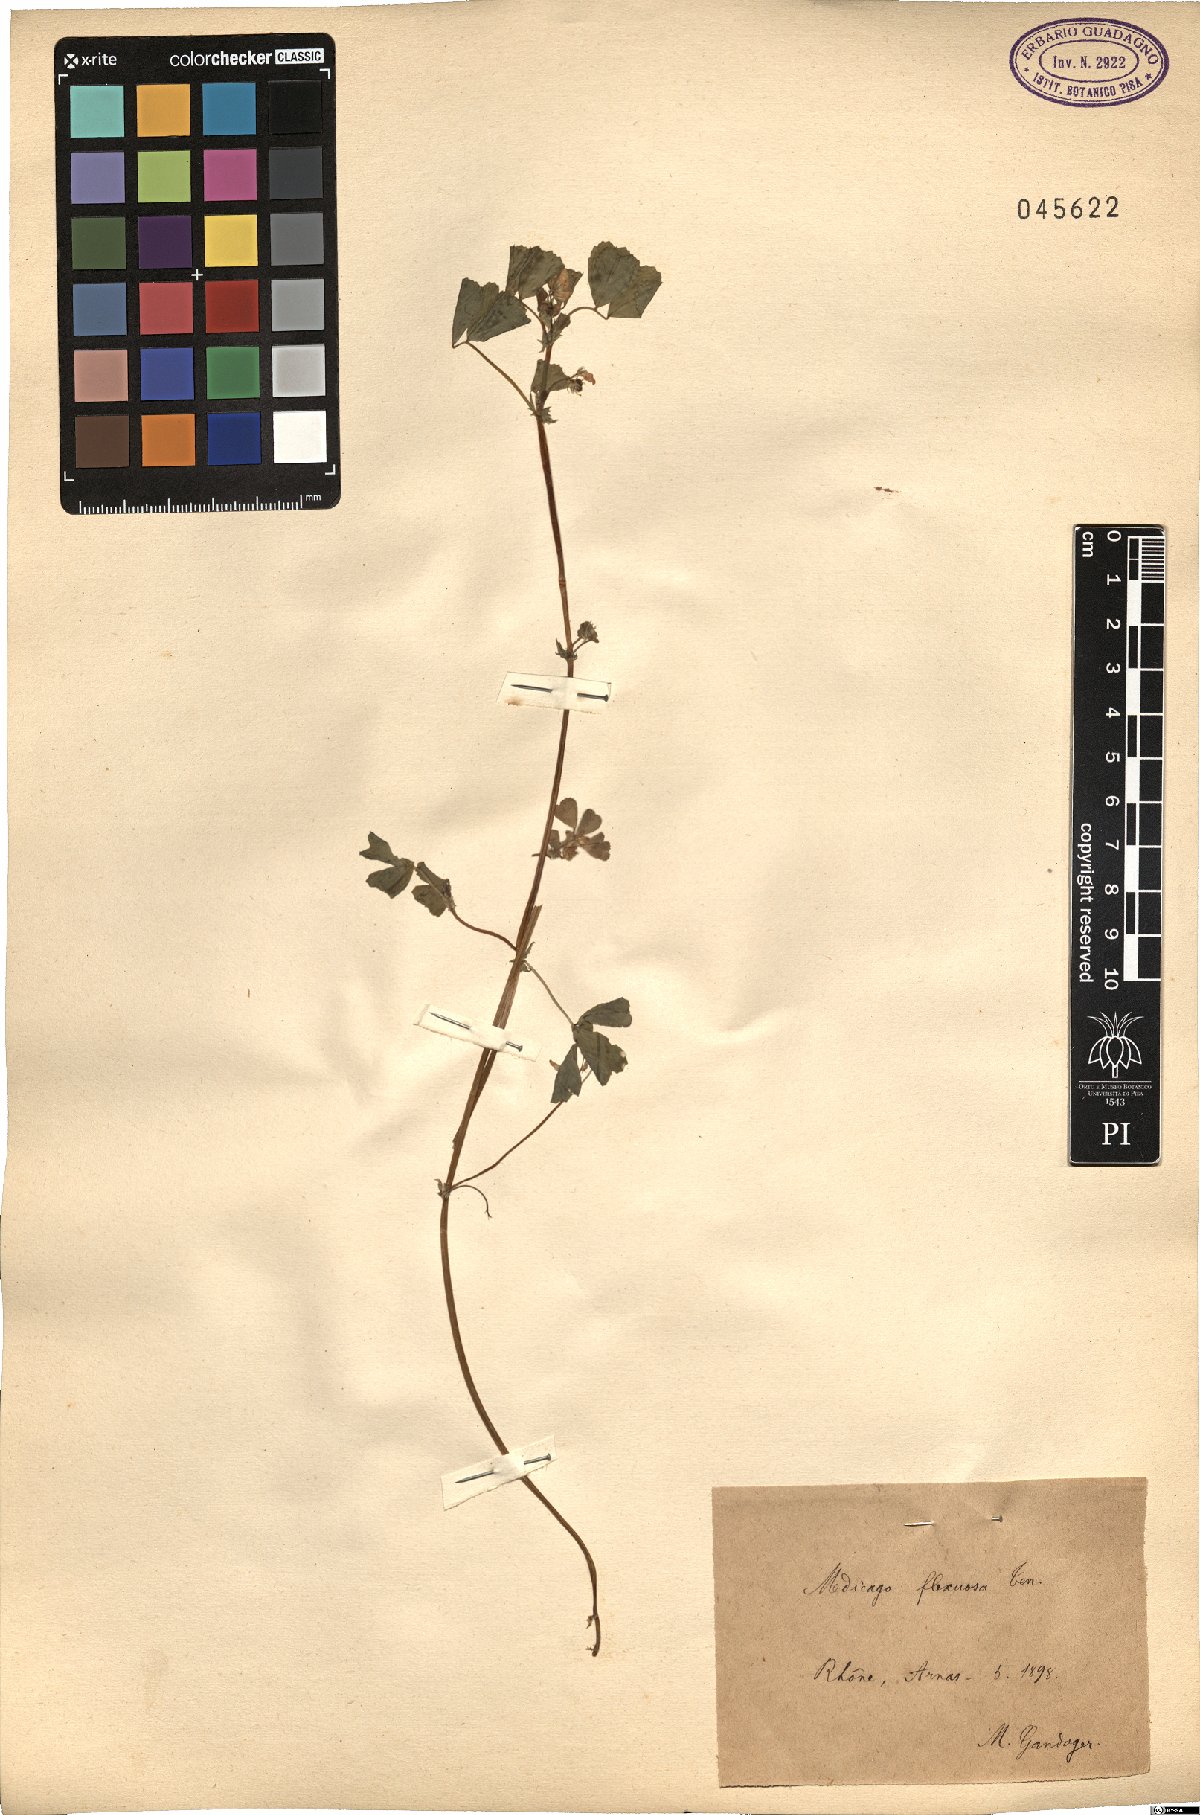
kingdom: Plantae
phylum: Tracheophyta
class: Magnoliopsida
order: Fabales
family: Fabaceae
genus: Medicago
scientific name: Medicago polymorpha
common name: Burclover
